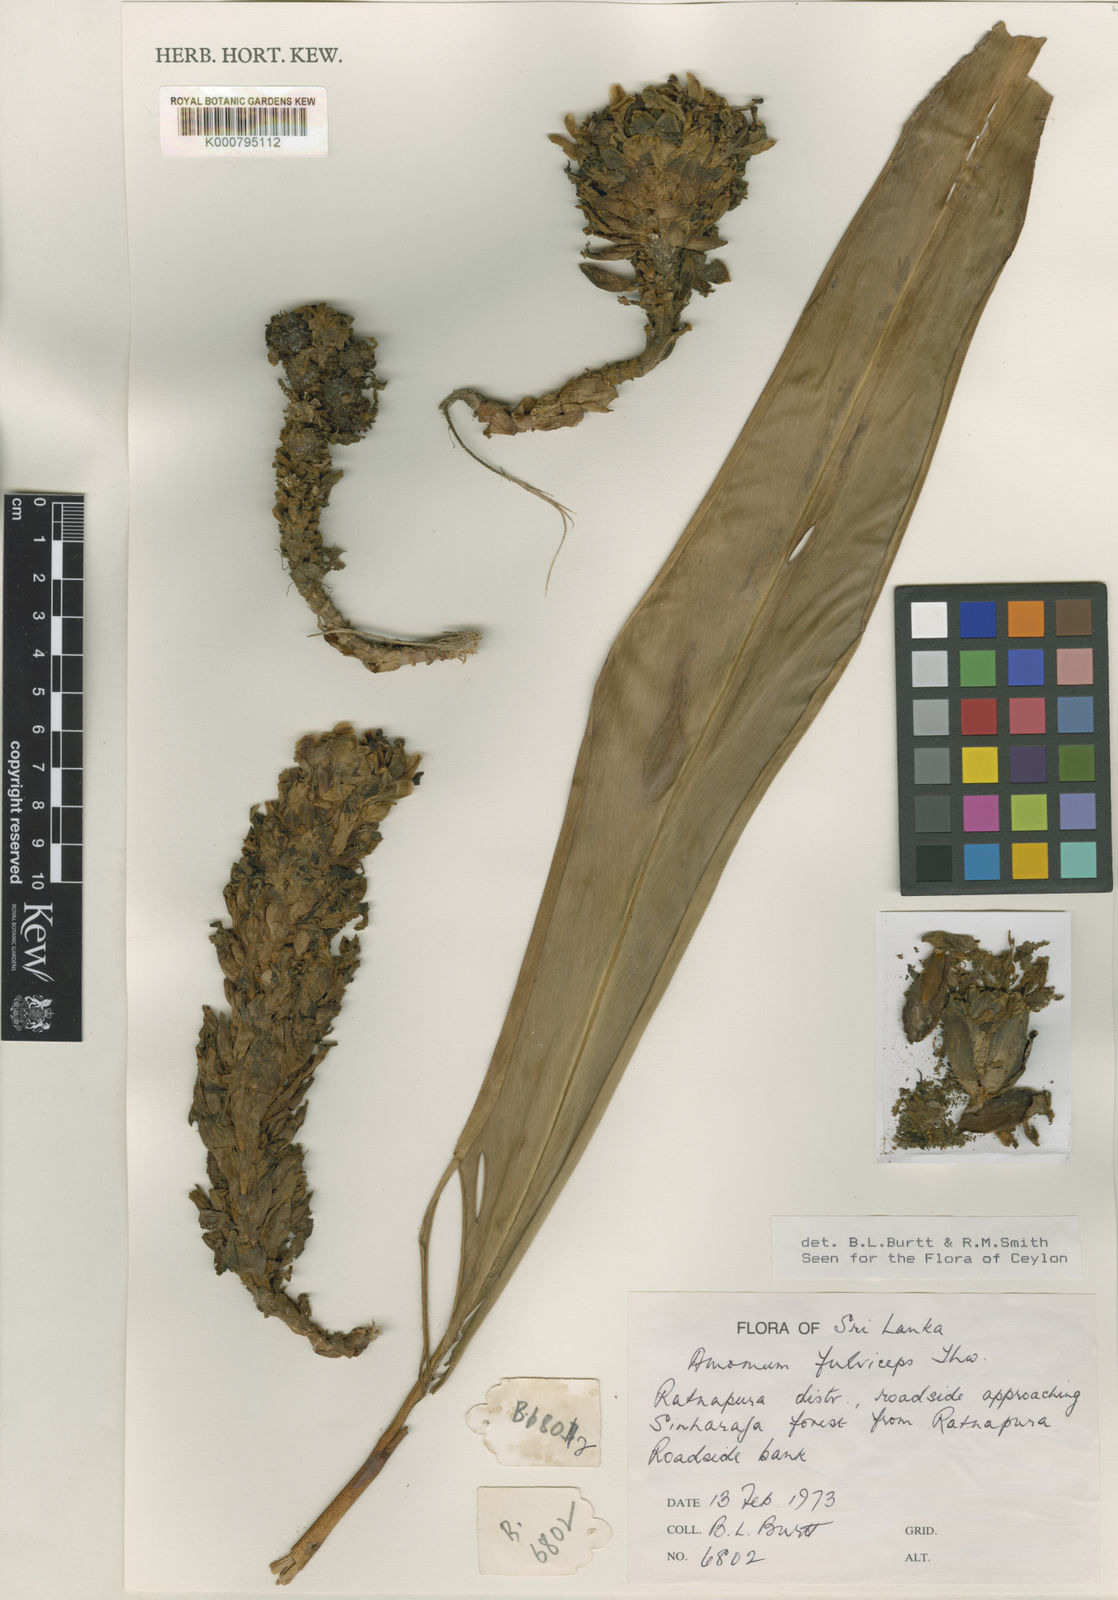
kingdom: Plantae
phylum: Tracheophyta
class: Liliopsida
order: Zingiberales
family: Zingiberaceae
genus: Meistera
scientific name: Meistera fulviceps
